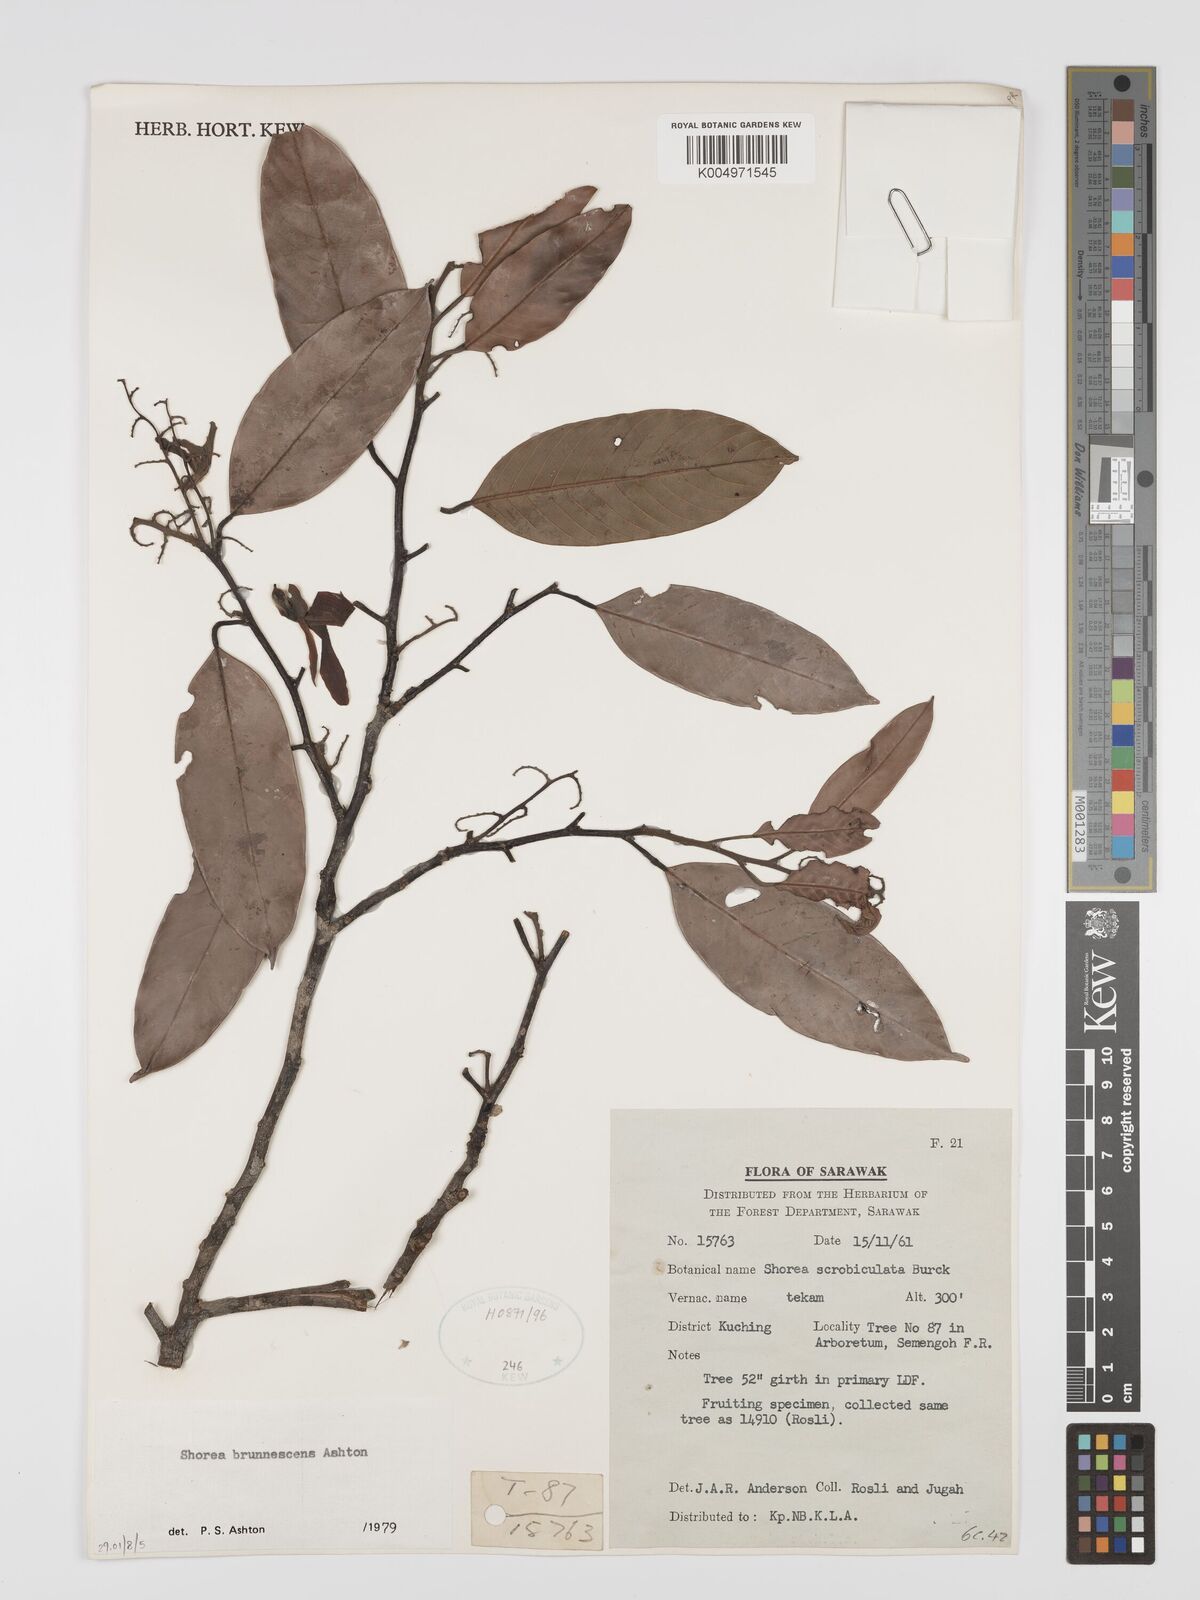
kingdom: Plantae
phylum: Tracheophyta
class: Magnoliopsida
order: Malvales
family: Dipterocarpaceae
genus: Shorea
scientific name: Shorea brunnescens
